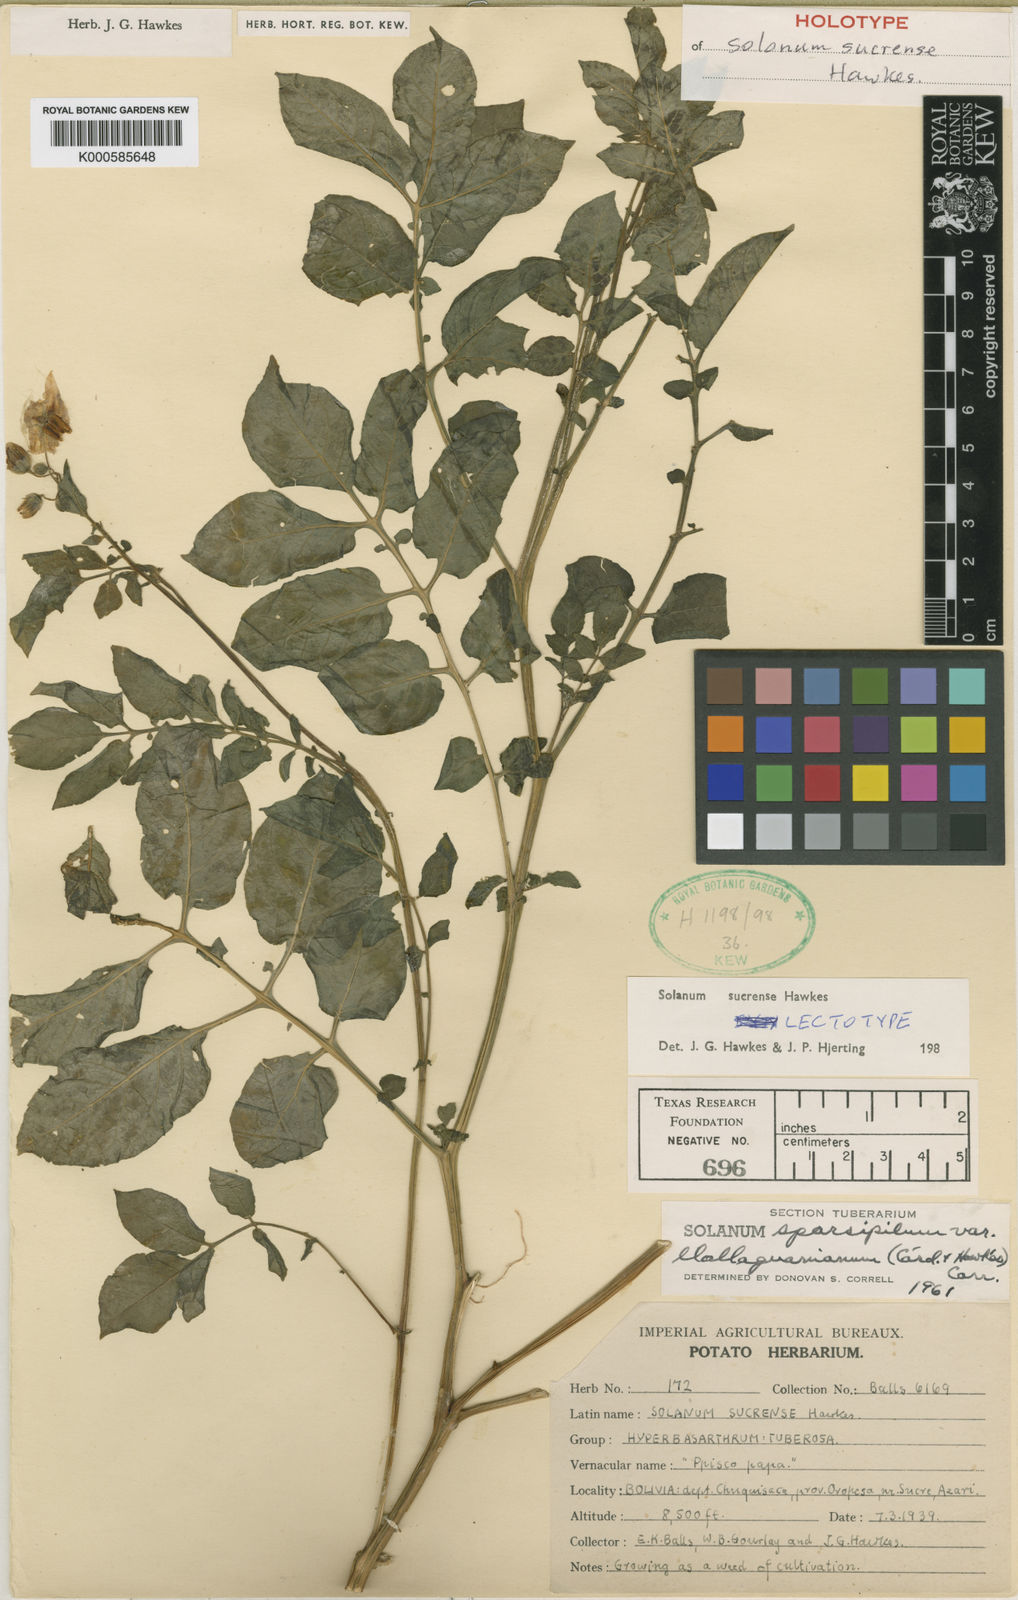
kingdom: Plantae
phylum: Tracheophyta
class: Magnoliopsida
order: Solanales
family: Solanaceae
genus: Solanum
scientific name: Solanum brevicaule
